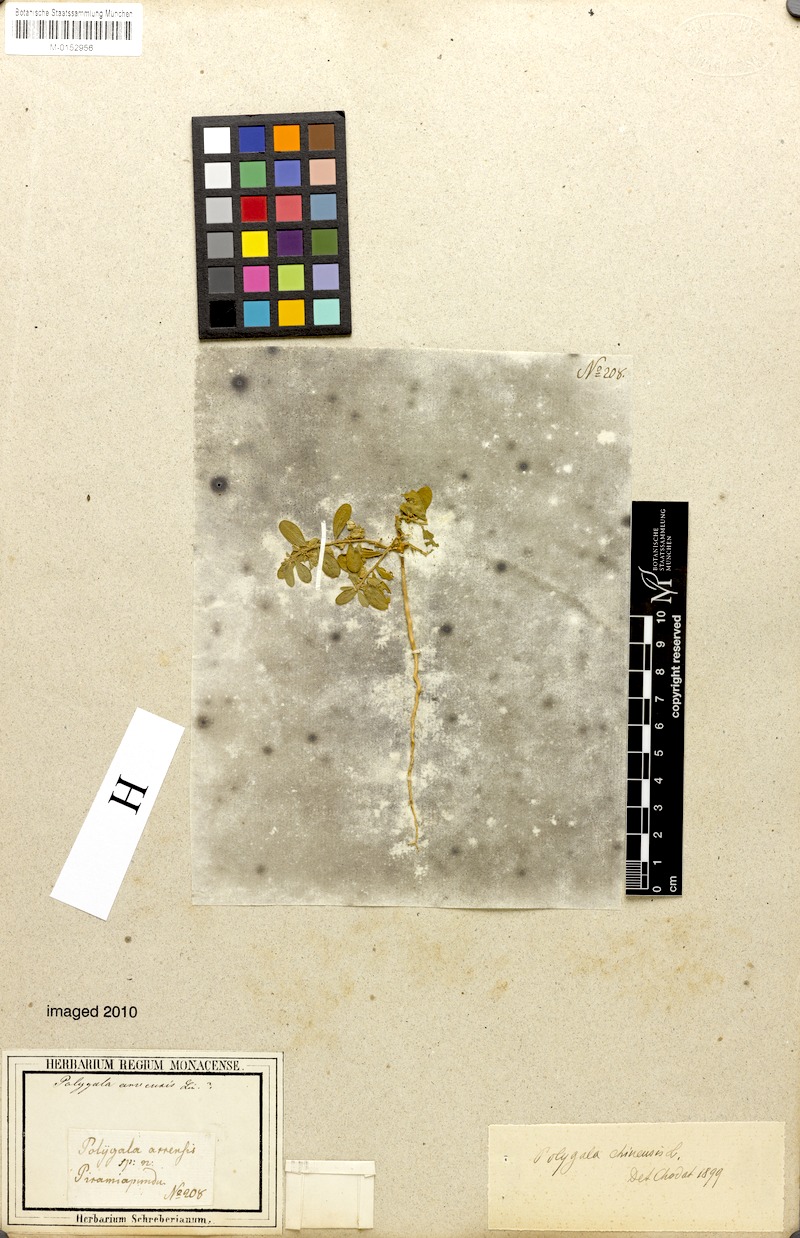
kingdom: Plantae
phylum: Tracheophyta
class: Magnoliopsida
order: Fabales
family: Polygalaceae
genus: Polygala
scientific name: Polygala glomerata
